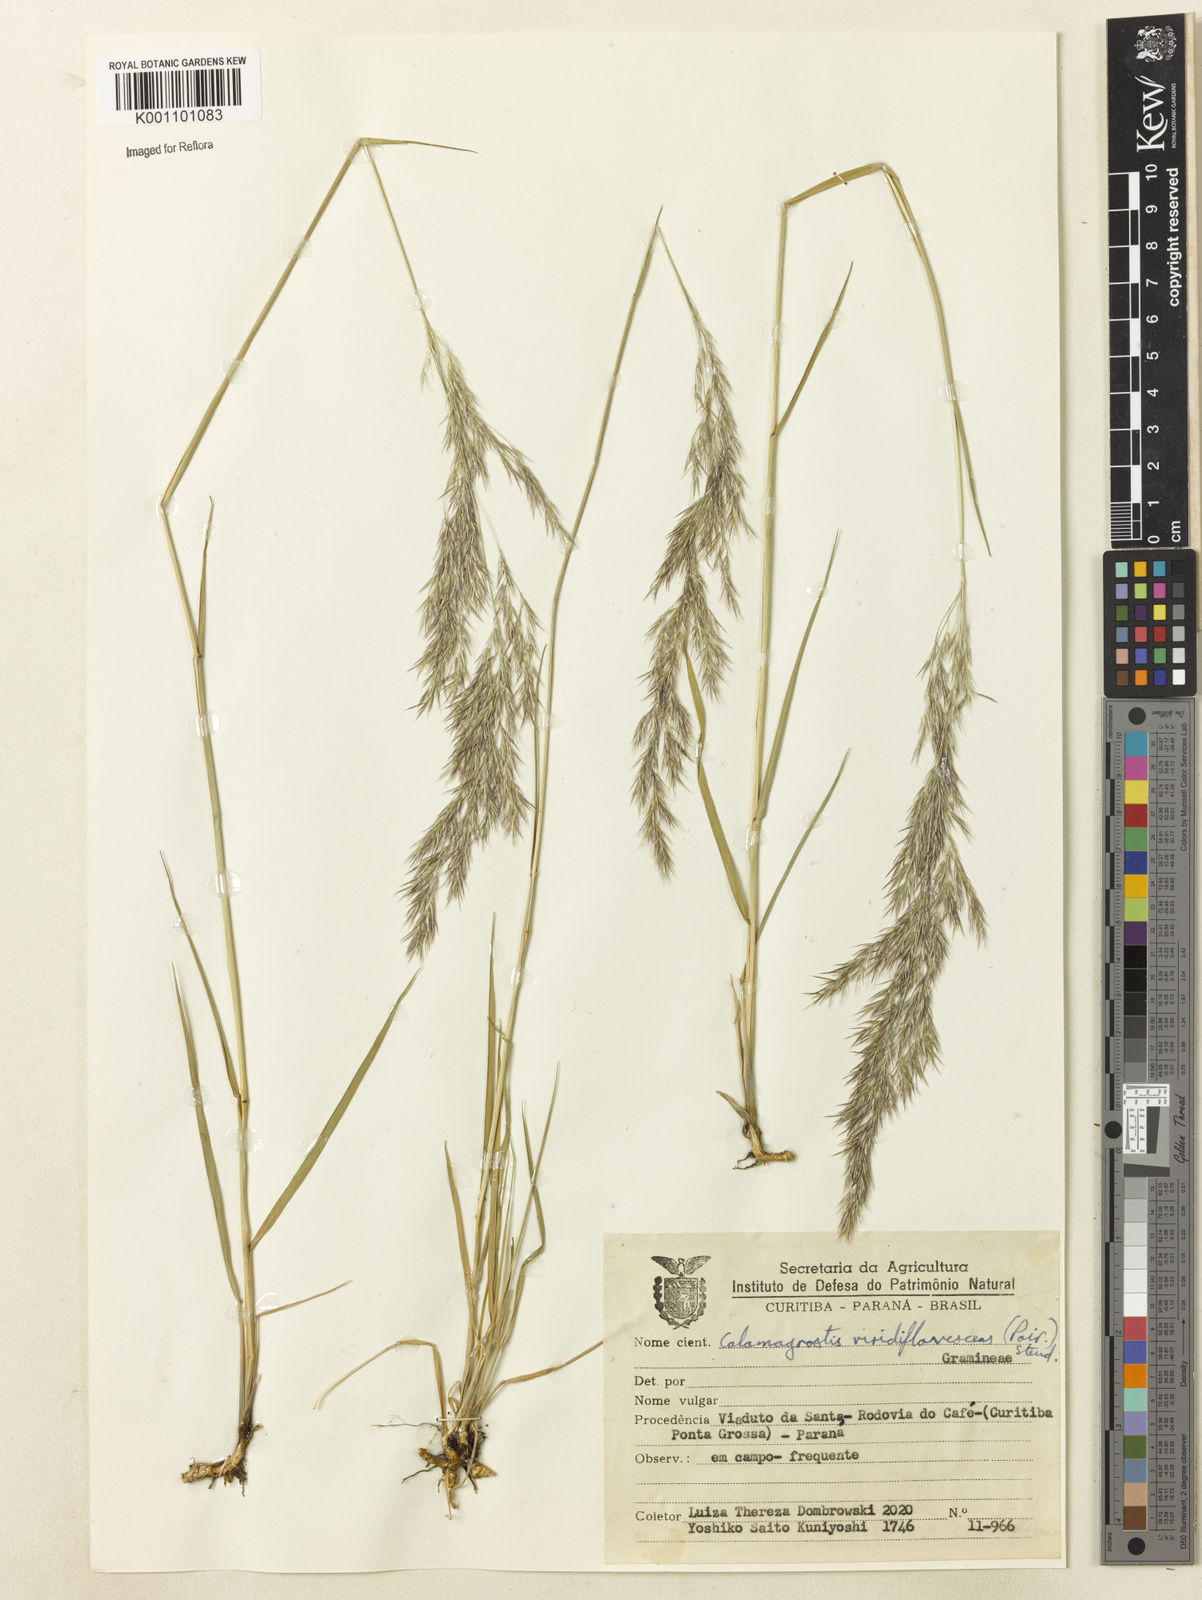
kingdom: Plantae
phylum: Tracheophyta
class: Liliopsida
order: Poales
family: Poaceae
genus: Cinnagrostis
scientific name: Cinnagrostis viridiflavescens
